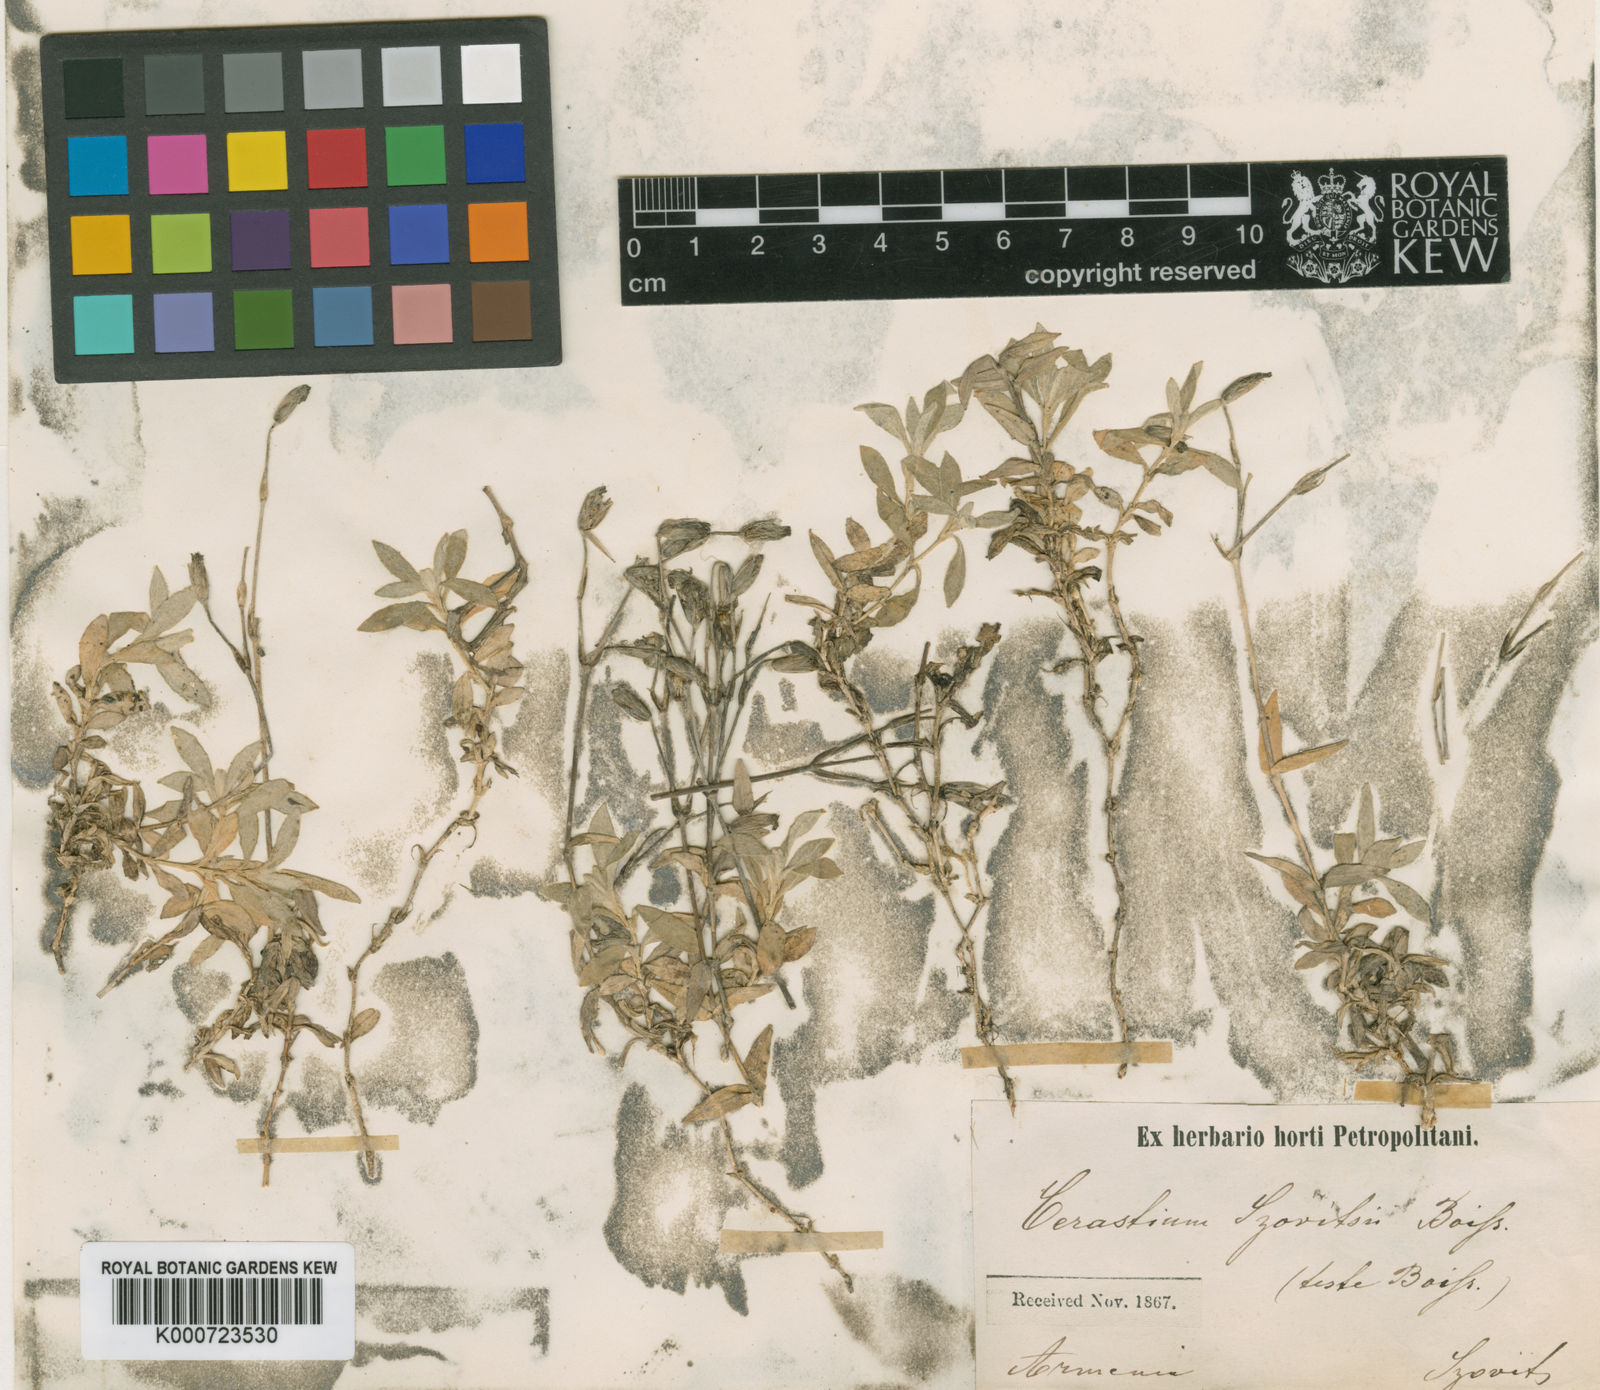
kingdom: Plantae
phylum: Tracheophyta
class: Magnoliopsida
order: Caryophyllales
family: Caryophyllaceae
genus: Cerastium
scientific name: Cerastium szowitsii
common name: Szowitz's chickweed
